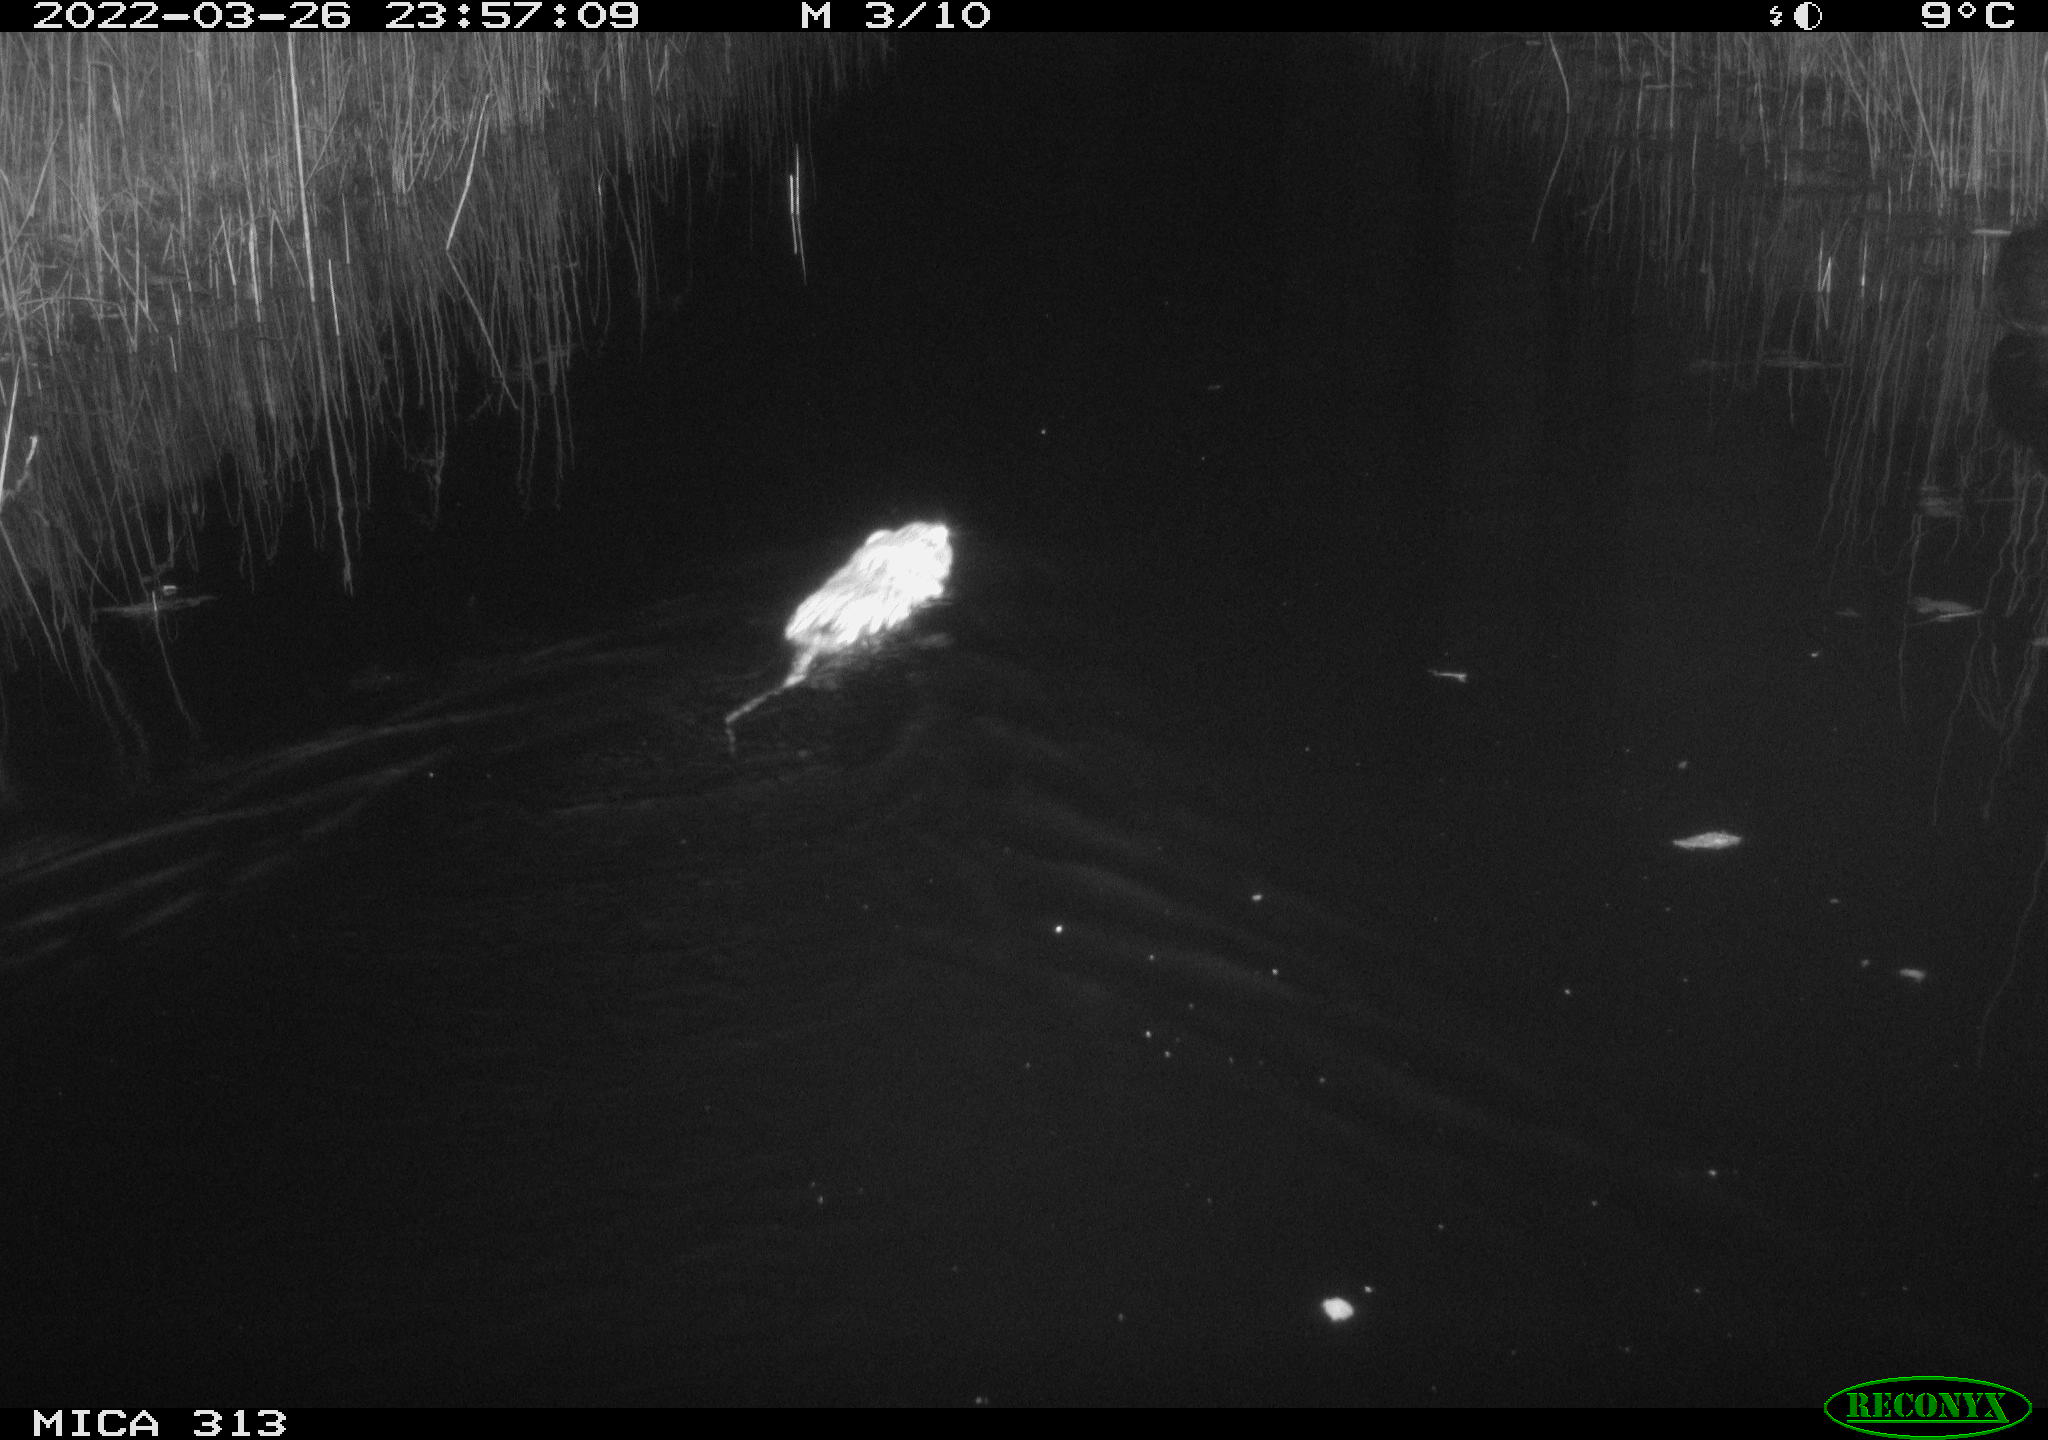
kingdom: Animalia
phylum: Chordata
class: Mammalia
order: Rodentia
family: Cricetidae
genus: Ondatra
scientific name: Ondatra zibethicus
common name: Muskrat
